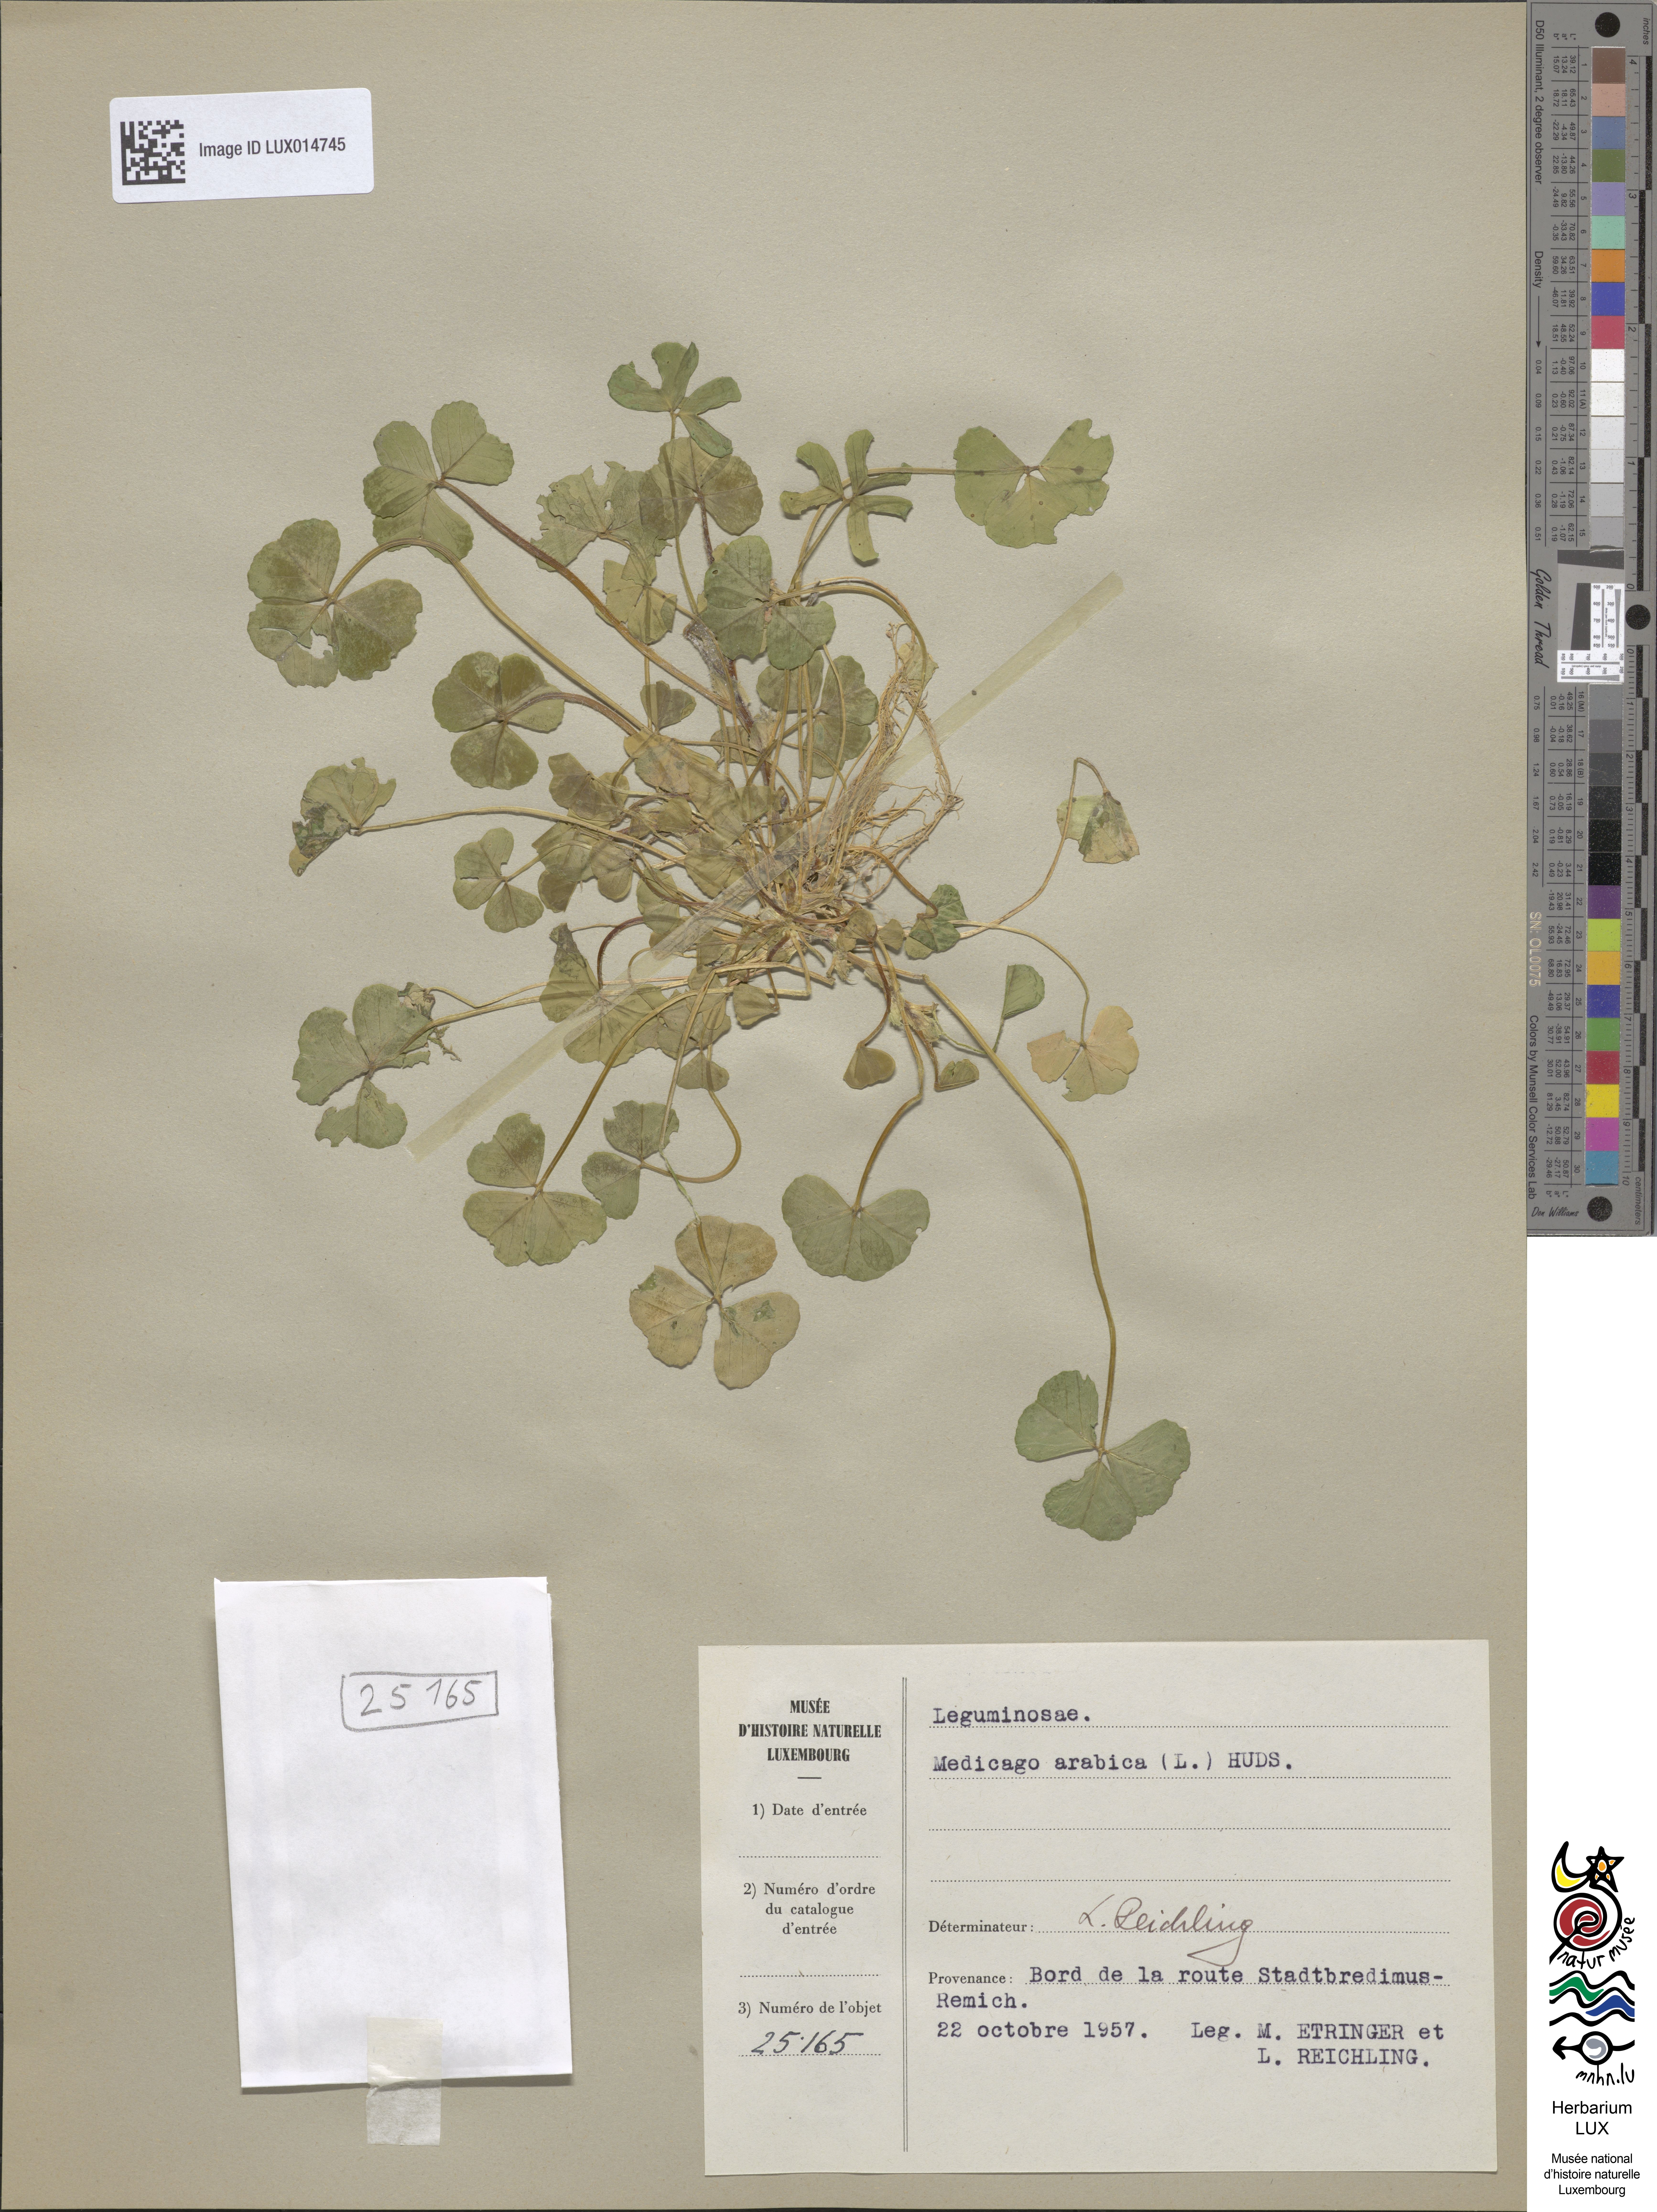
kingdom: Plantae
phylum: Tracheophyta
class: Magnoliopsida
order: Fabales
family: Fabaceae
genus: Medicago
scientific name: Medicago arabica
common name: Spotted medick
